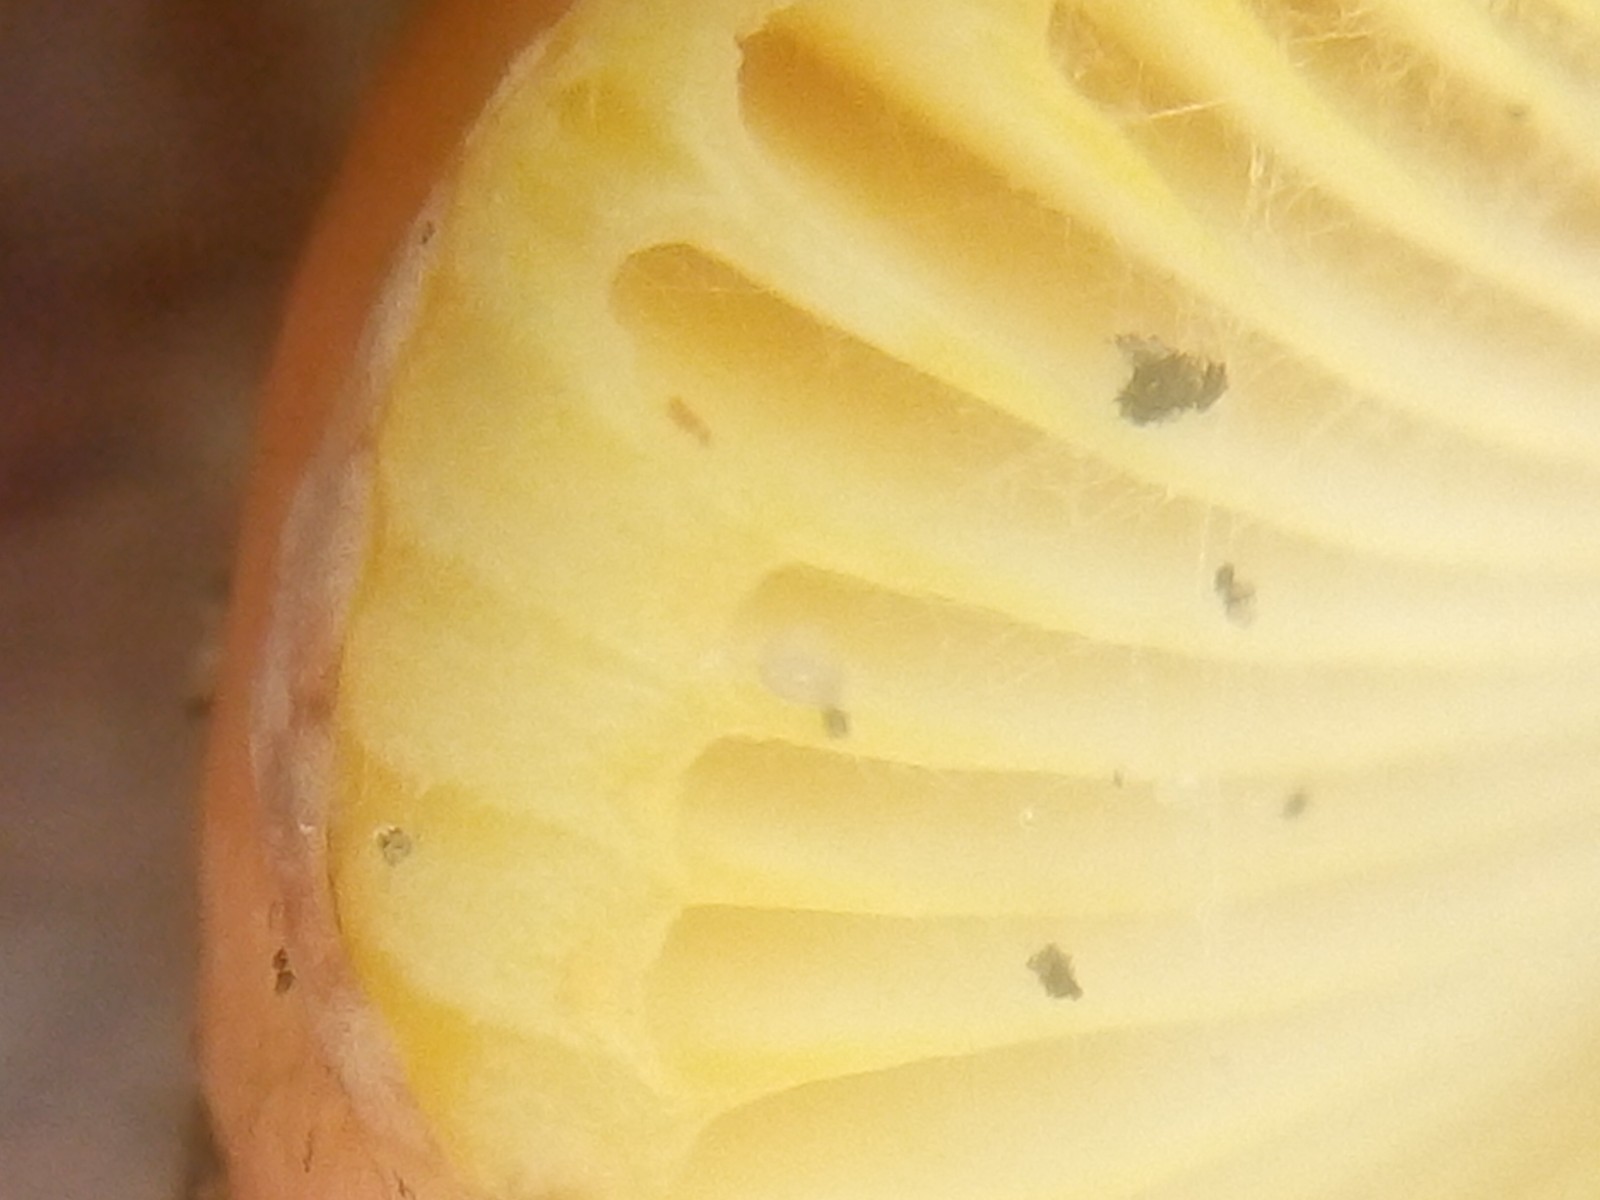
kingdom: Fungi
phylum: Basidiomycota
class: Agaricomycetes
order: Russulales
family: Russulaceae
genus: Russula
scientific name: Russula aurea
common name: gylden skørhat
